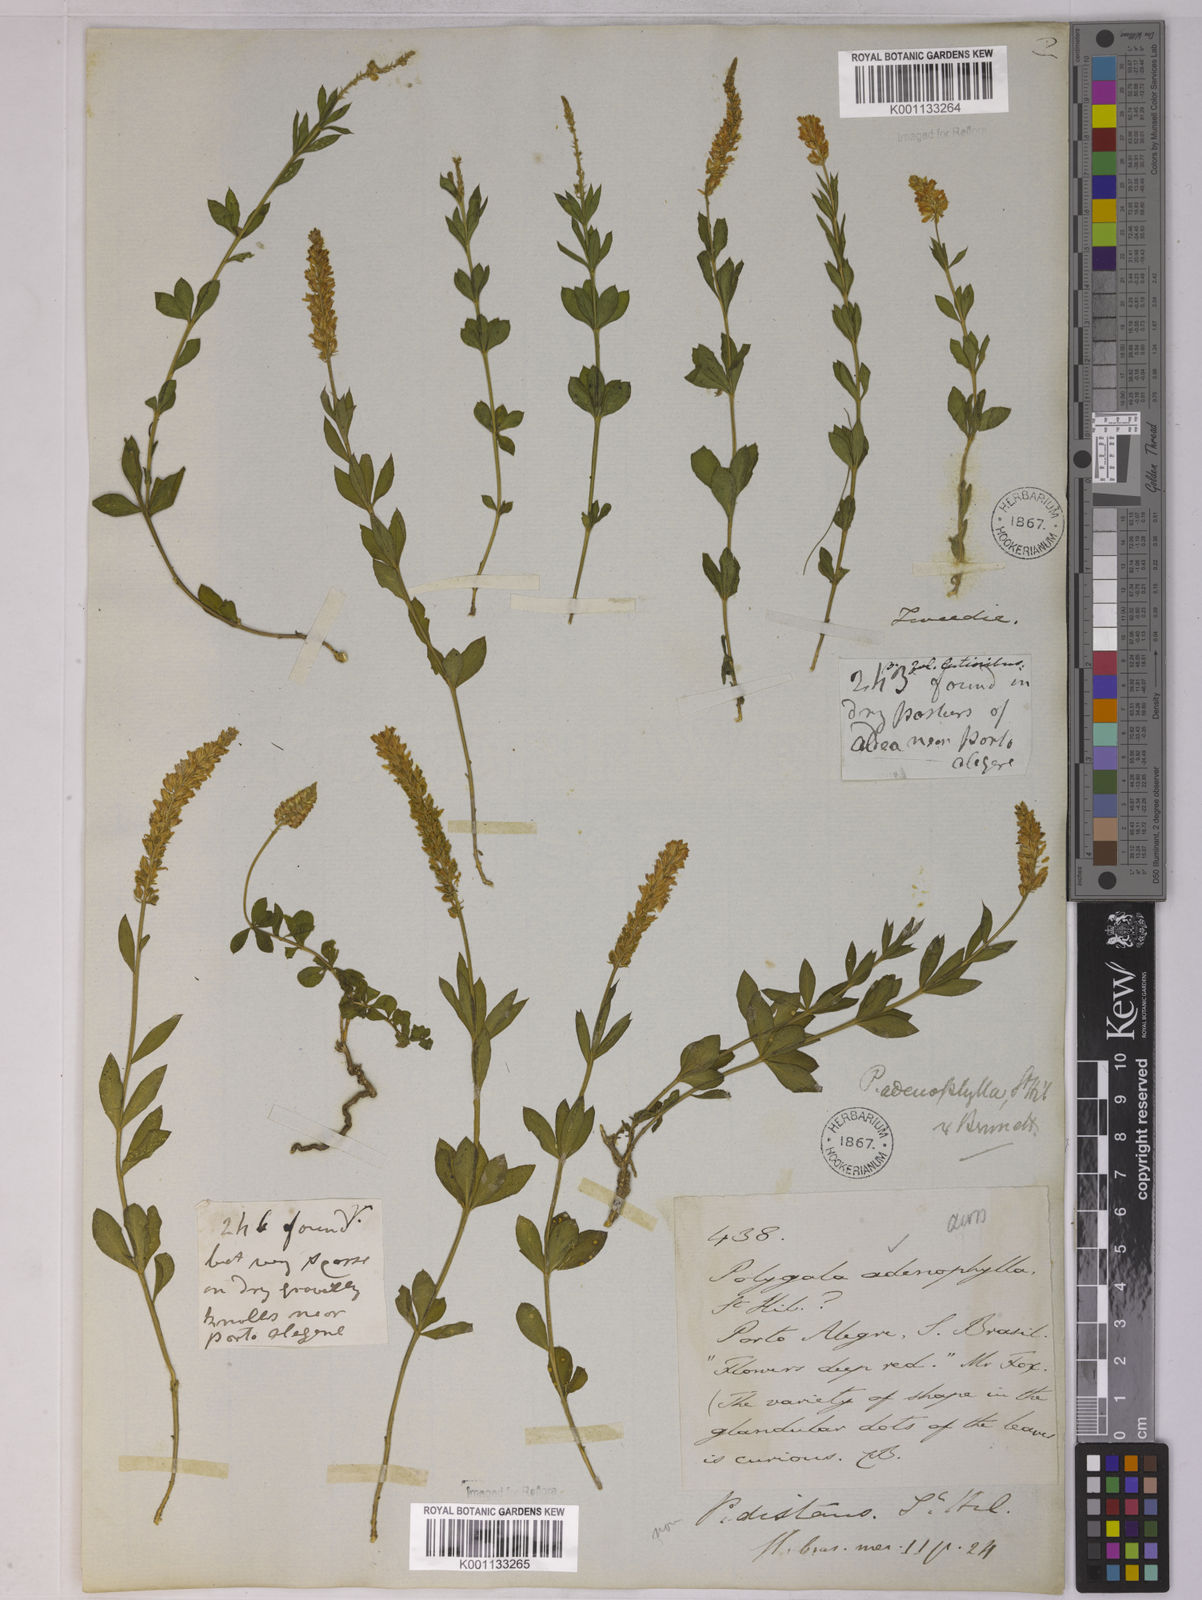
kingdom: Plantae
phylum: Tracheophyta
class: Magnoliopsida
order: Fabales
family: Polygalaceae
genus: Polygala
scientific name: Polygala adenophylla
